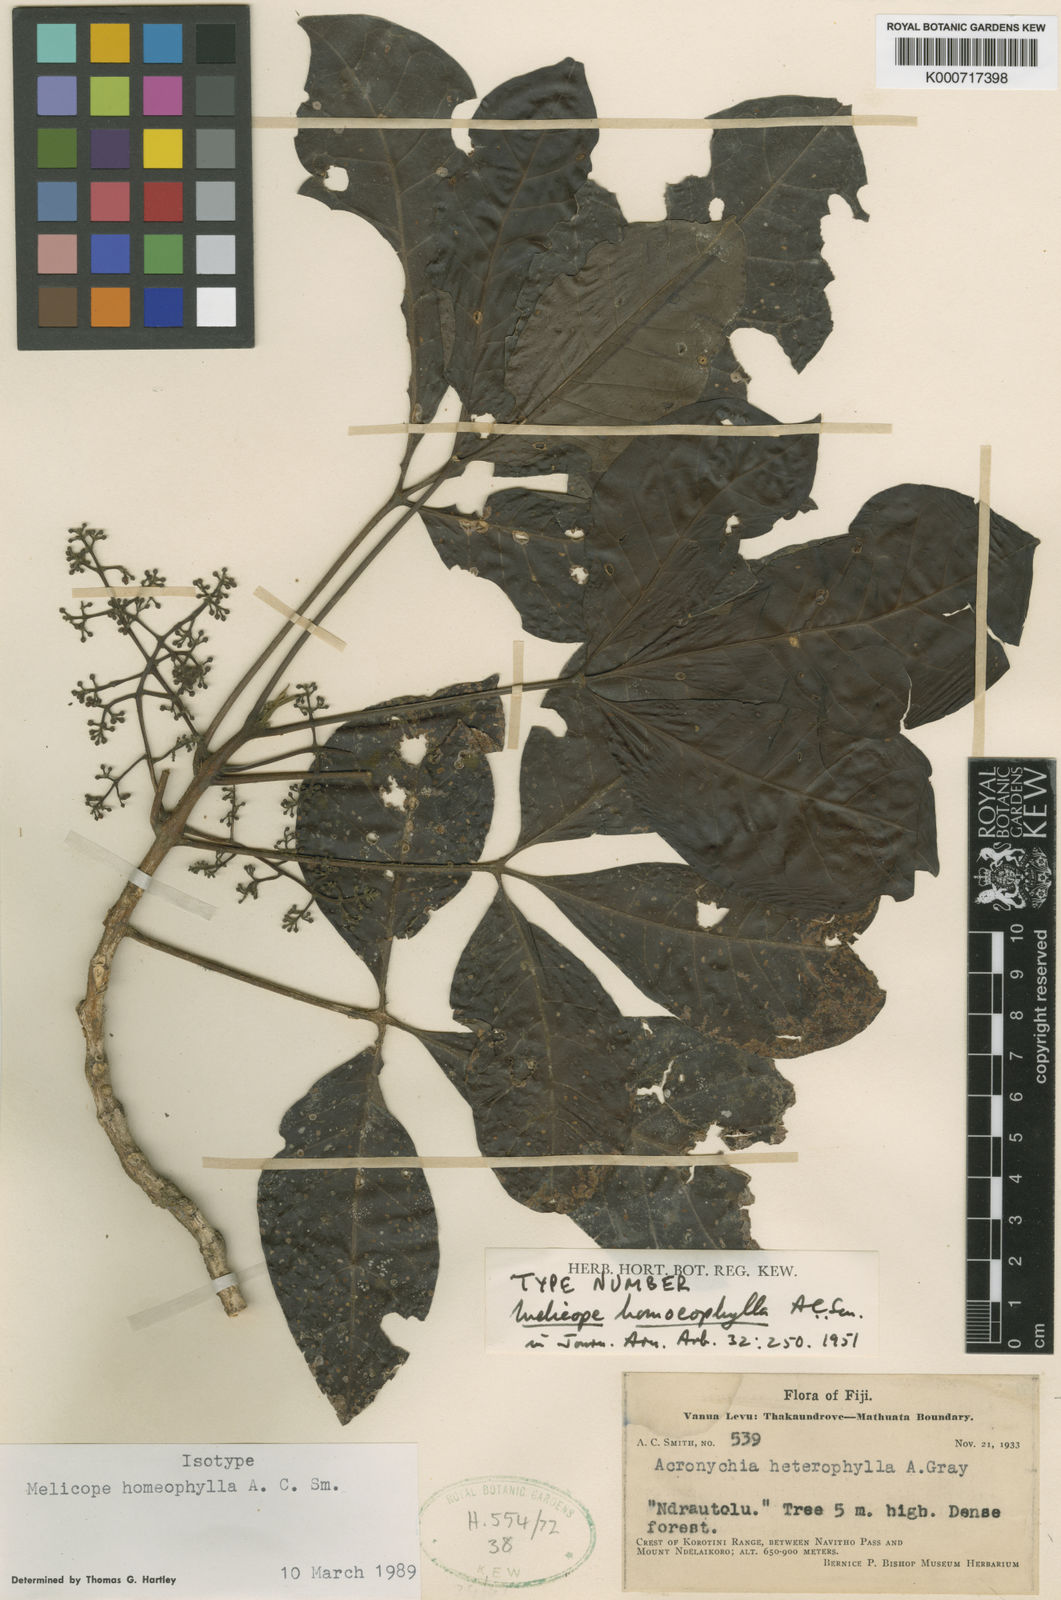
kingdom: Plantae
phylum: Tracheophyta
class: Magnoliopsida
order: Sapindales
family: Rutaceae
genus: Melicope
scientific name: Melicope homoeophylla
